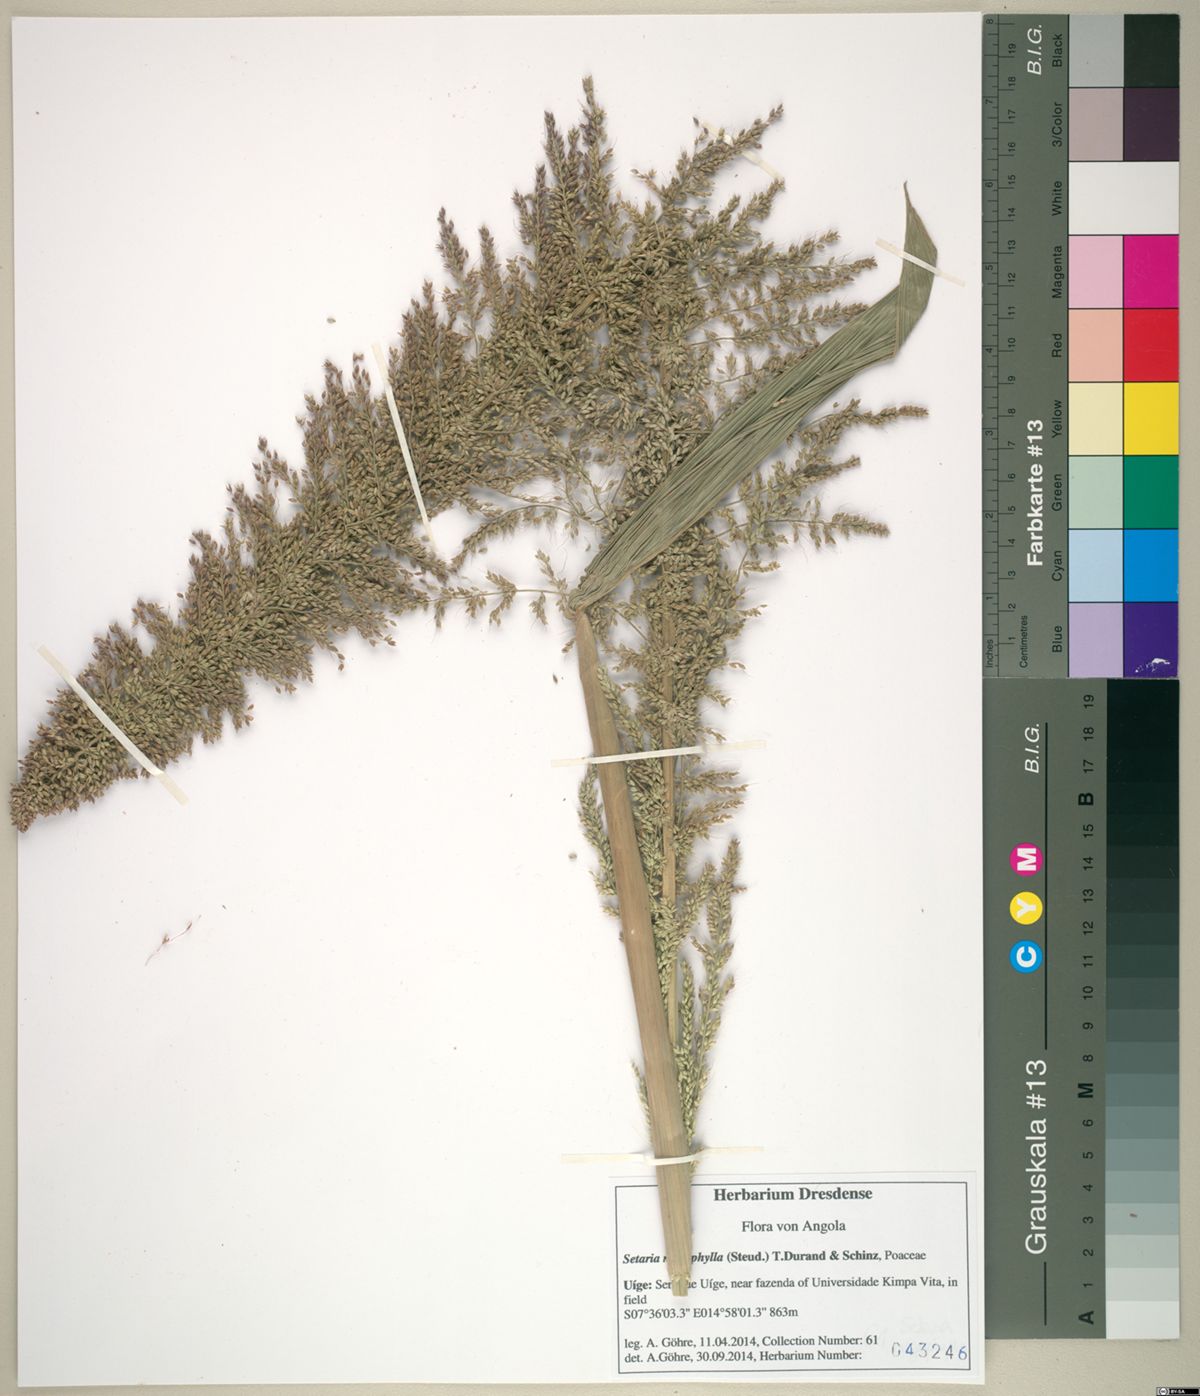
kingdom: Plantae
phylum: Tracheophyta
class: Liliopsida
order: Poales
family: Poaceae
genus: Setaria
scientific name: Setaria megaphylla
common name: Bigleaf bristlegrass
